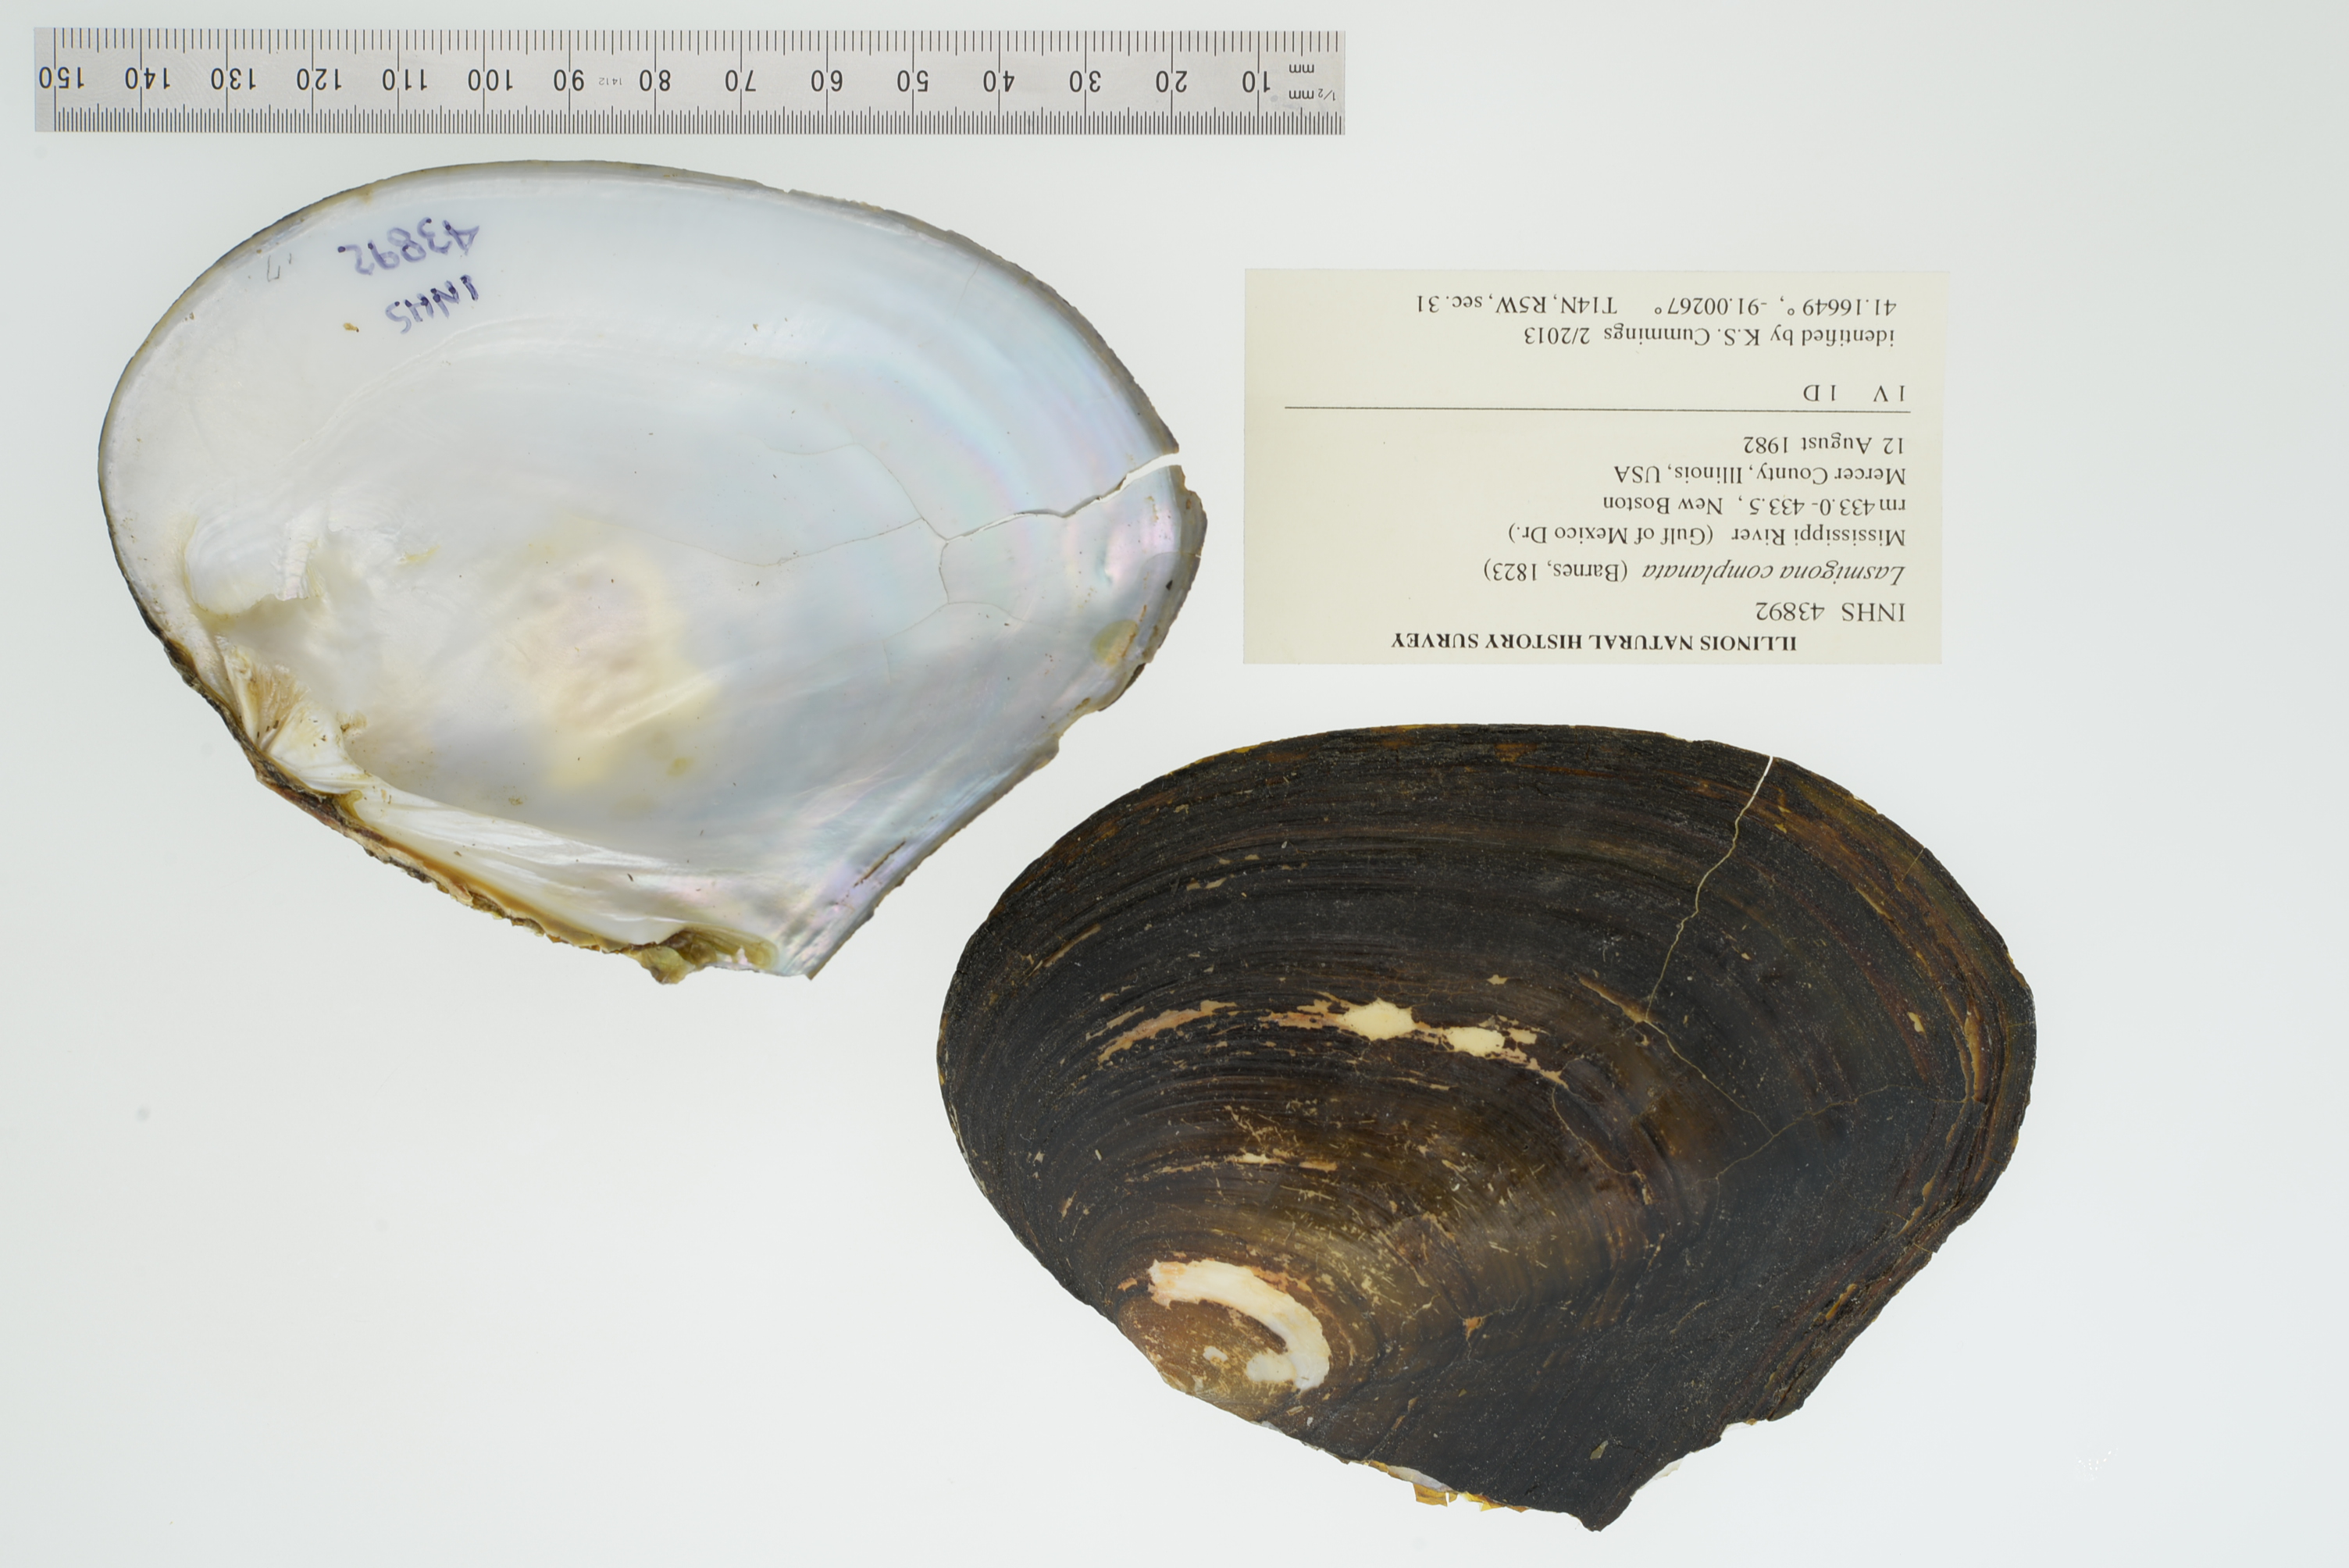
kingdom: Animalia
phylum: Mollusca
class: Bivalvia
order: Unionida
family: Unionidae
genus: Lasmigona
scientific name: Lasmigona complanata
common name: White heelsplitter
